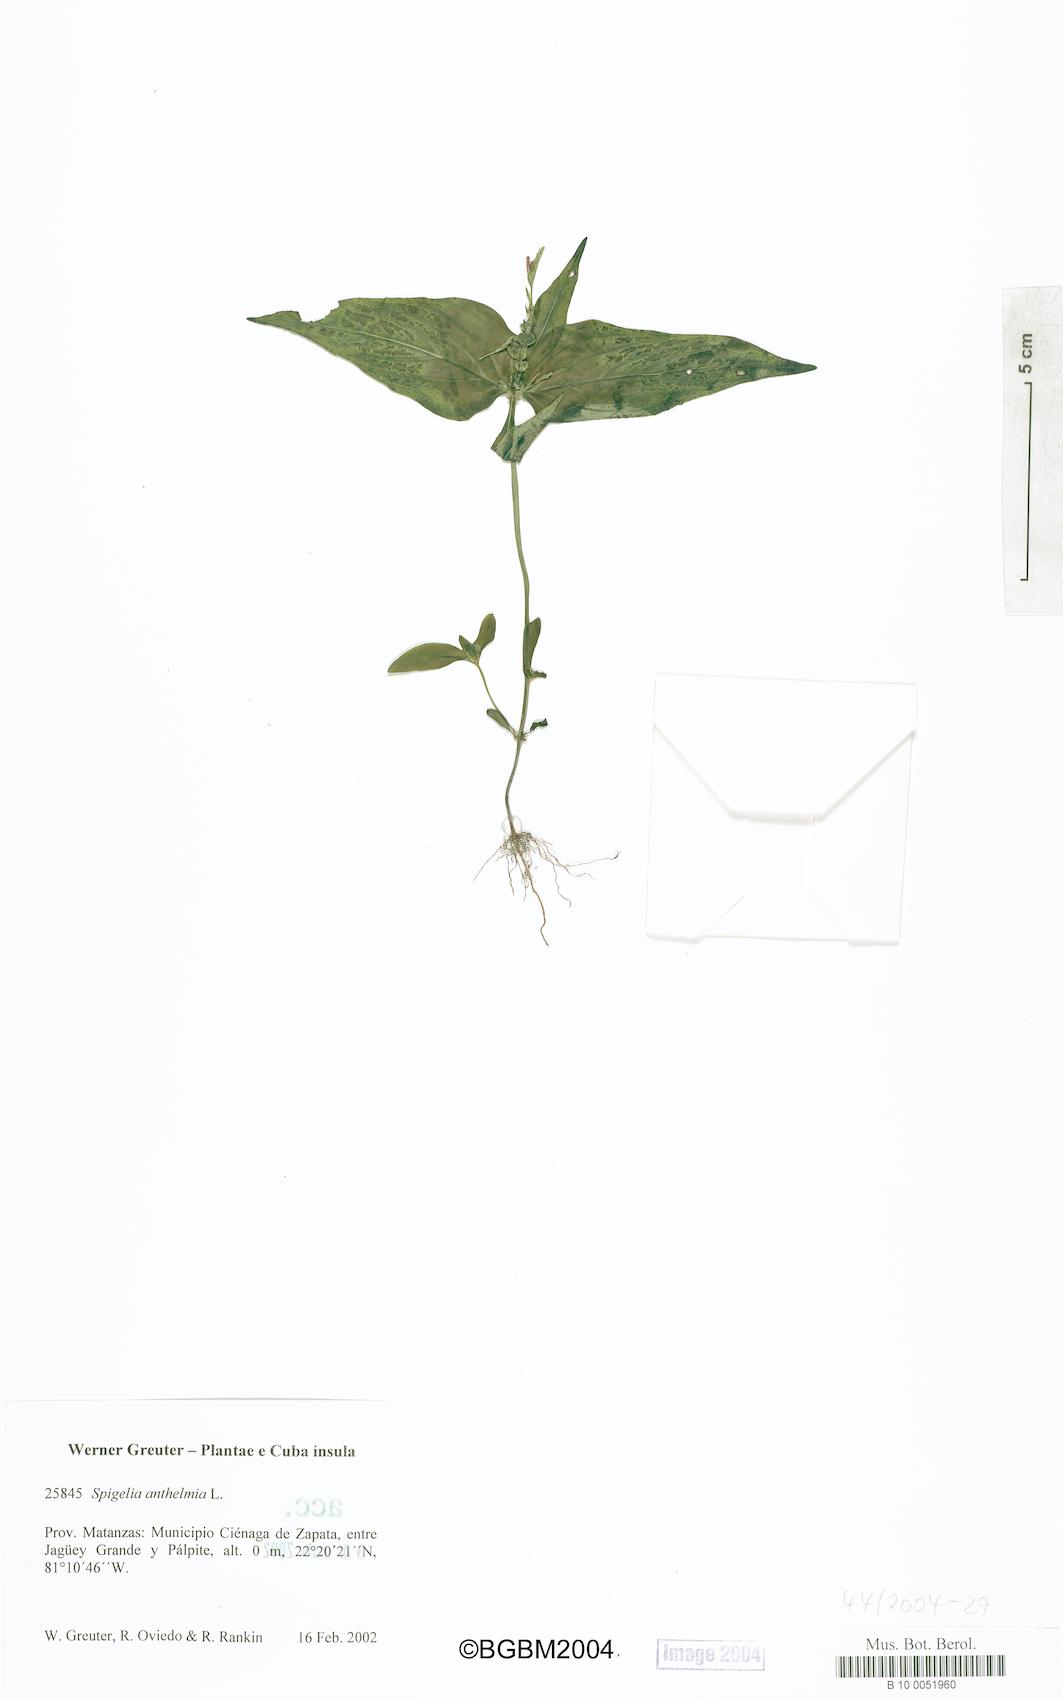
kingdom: Plantae
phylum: Tracheophyta
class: Magnoliopsida
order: Gentianales
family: Loganiaceae
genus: Spigelia
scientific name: Spigelia anthelmia
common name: West indian-pink
